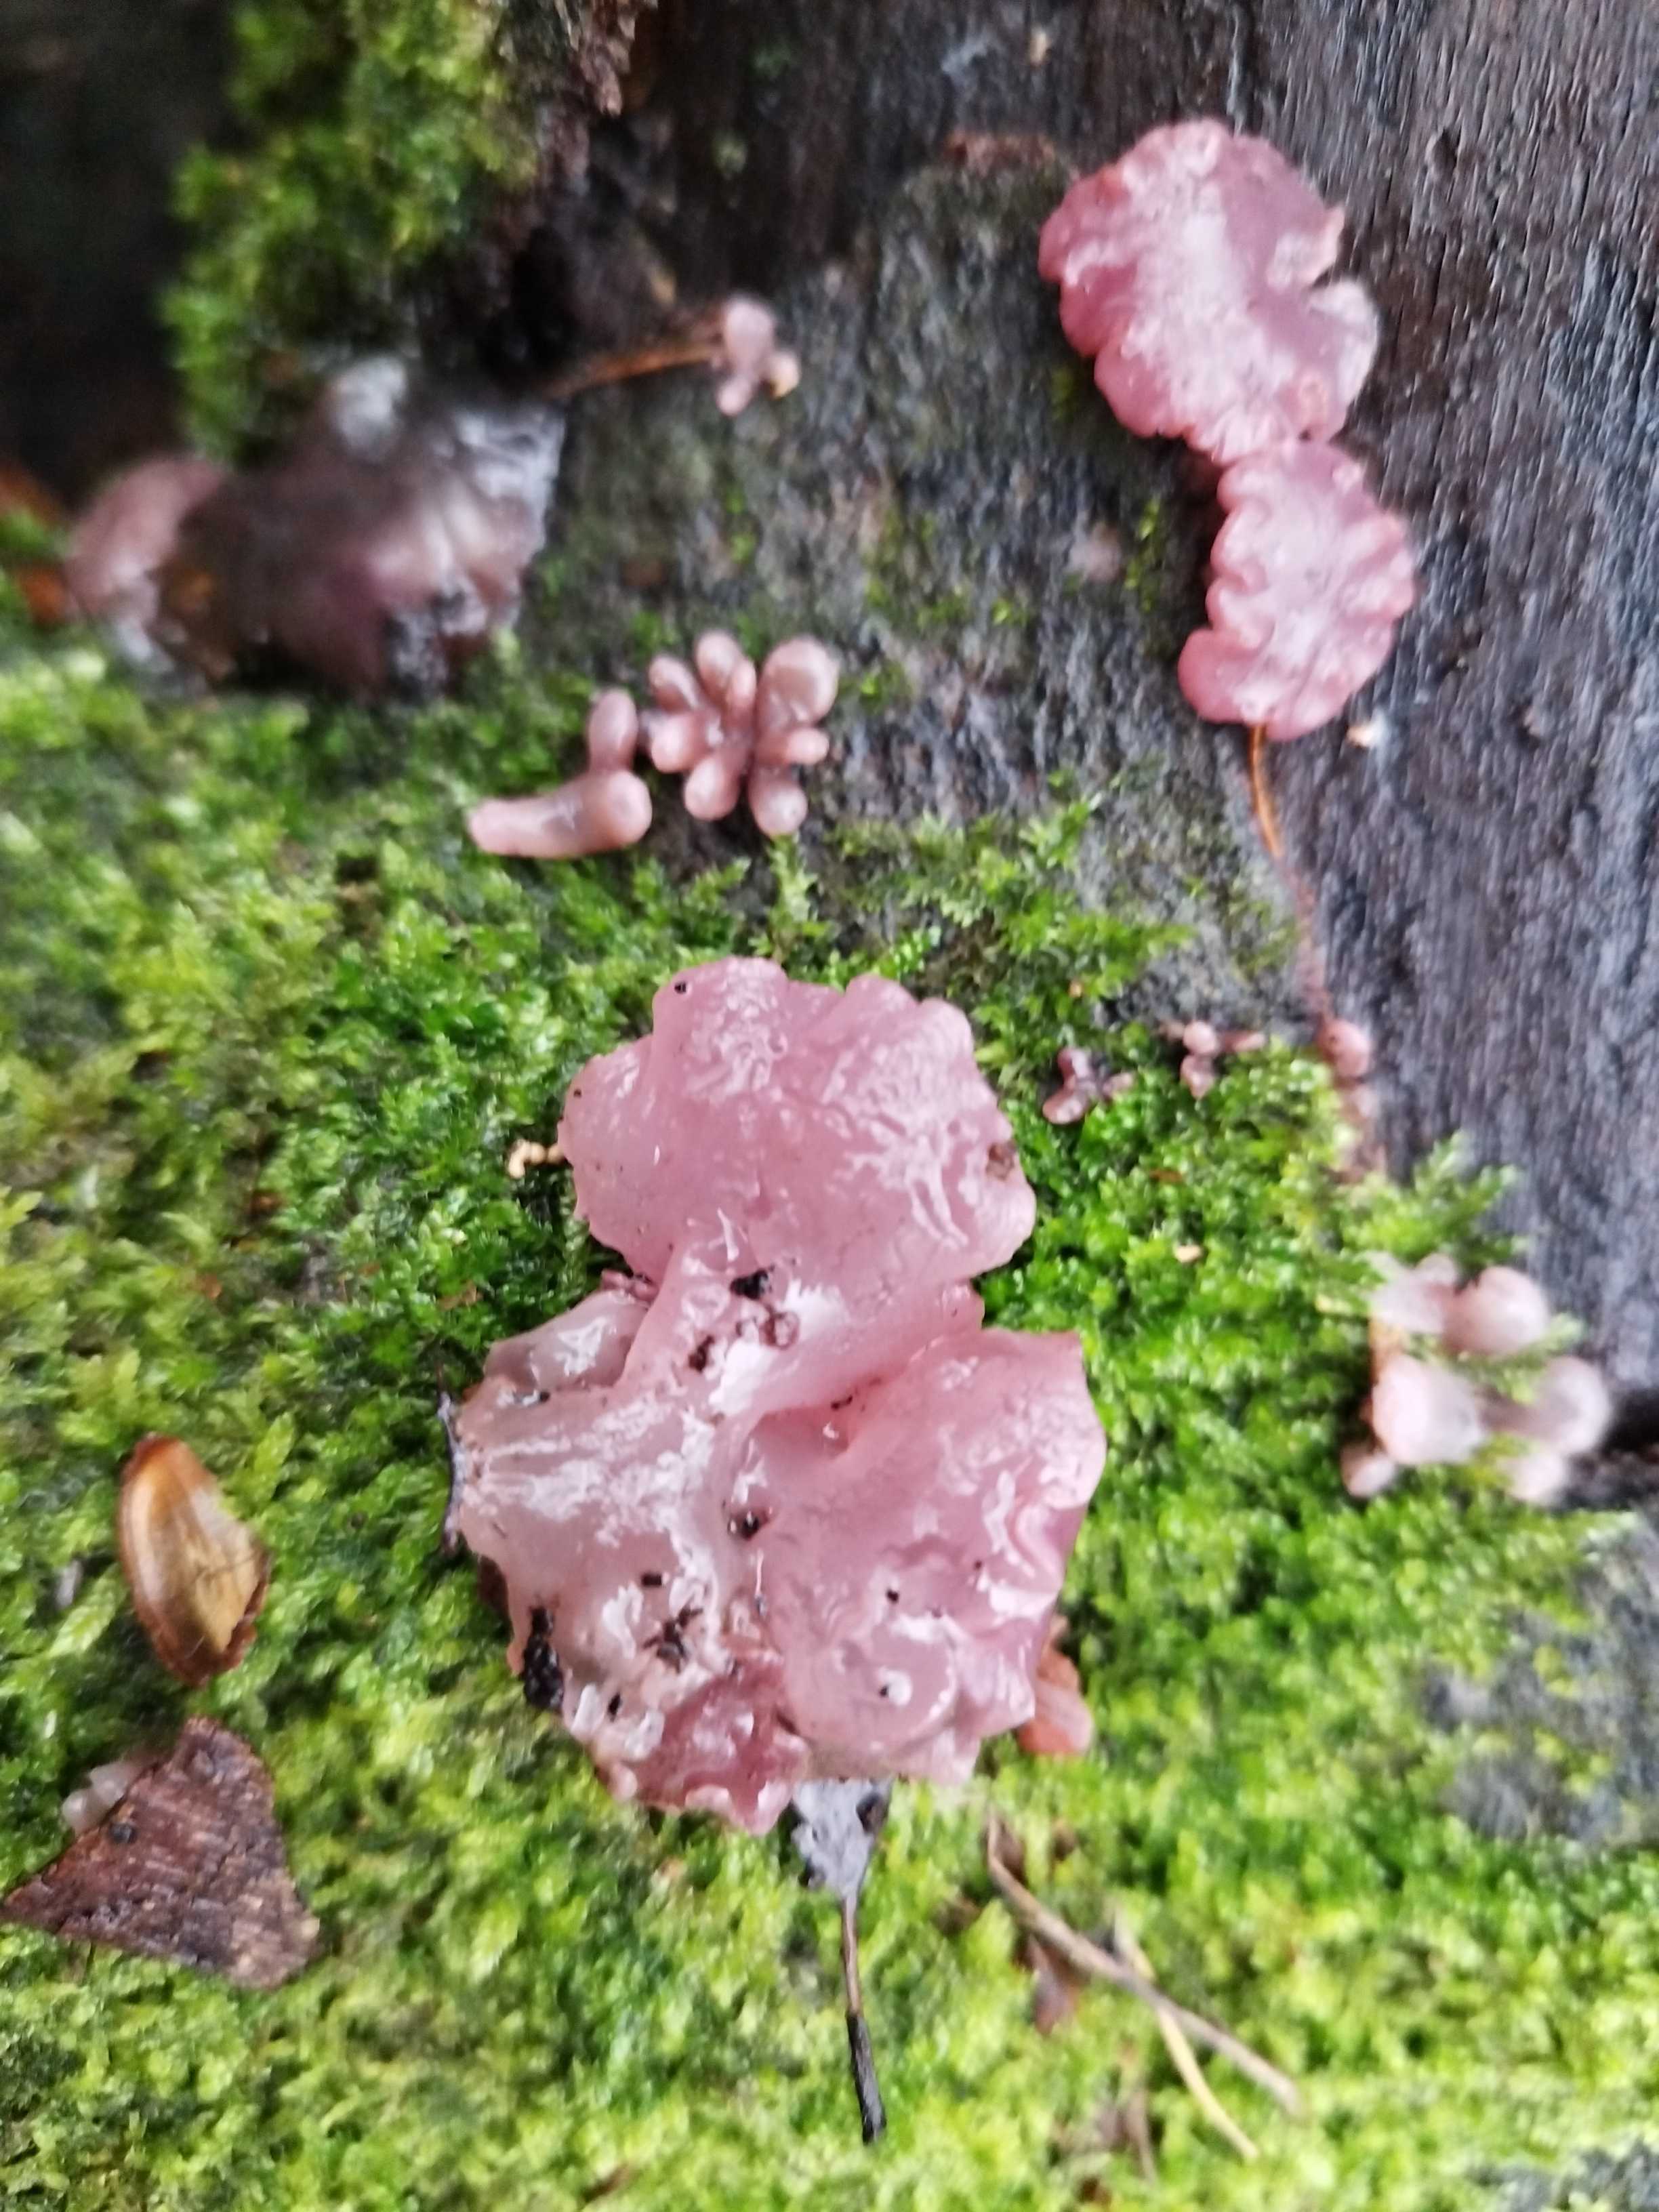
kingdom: Fungi
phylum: Ascomycota
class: Leotiomycetes
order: Helotiales
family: Gelatinodiscaceae
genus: Ascocoryne
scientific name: Ascocoryne sarcoides
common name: rødlilla sejskive
